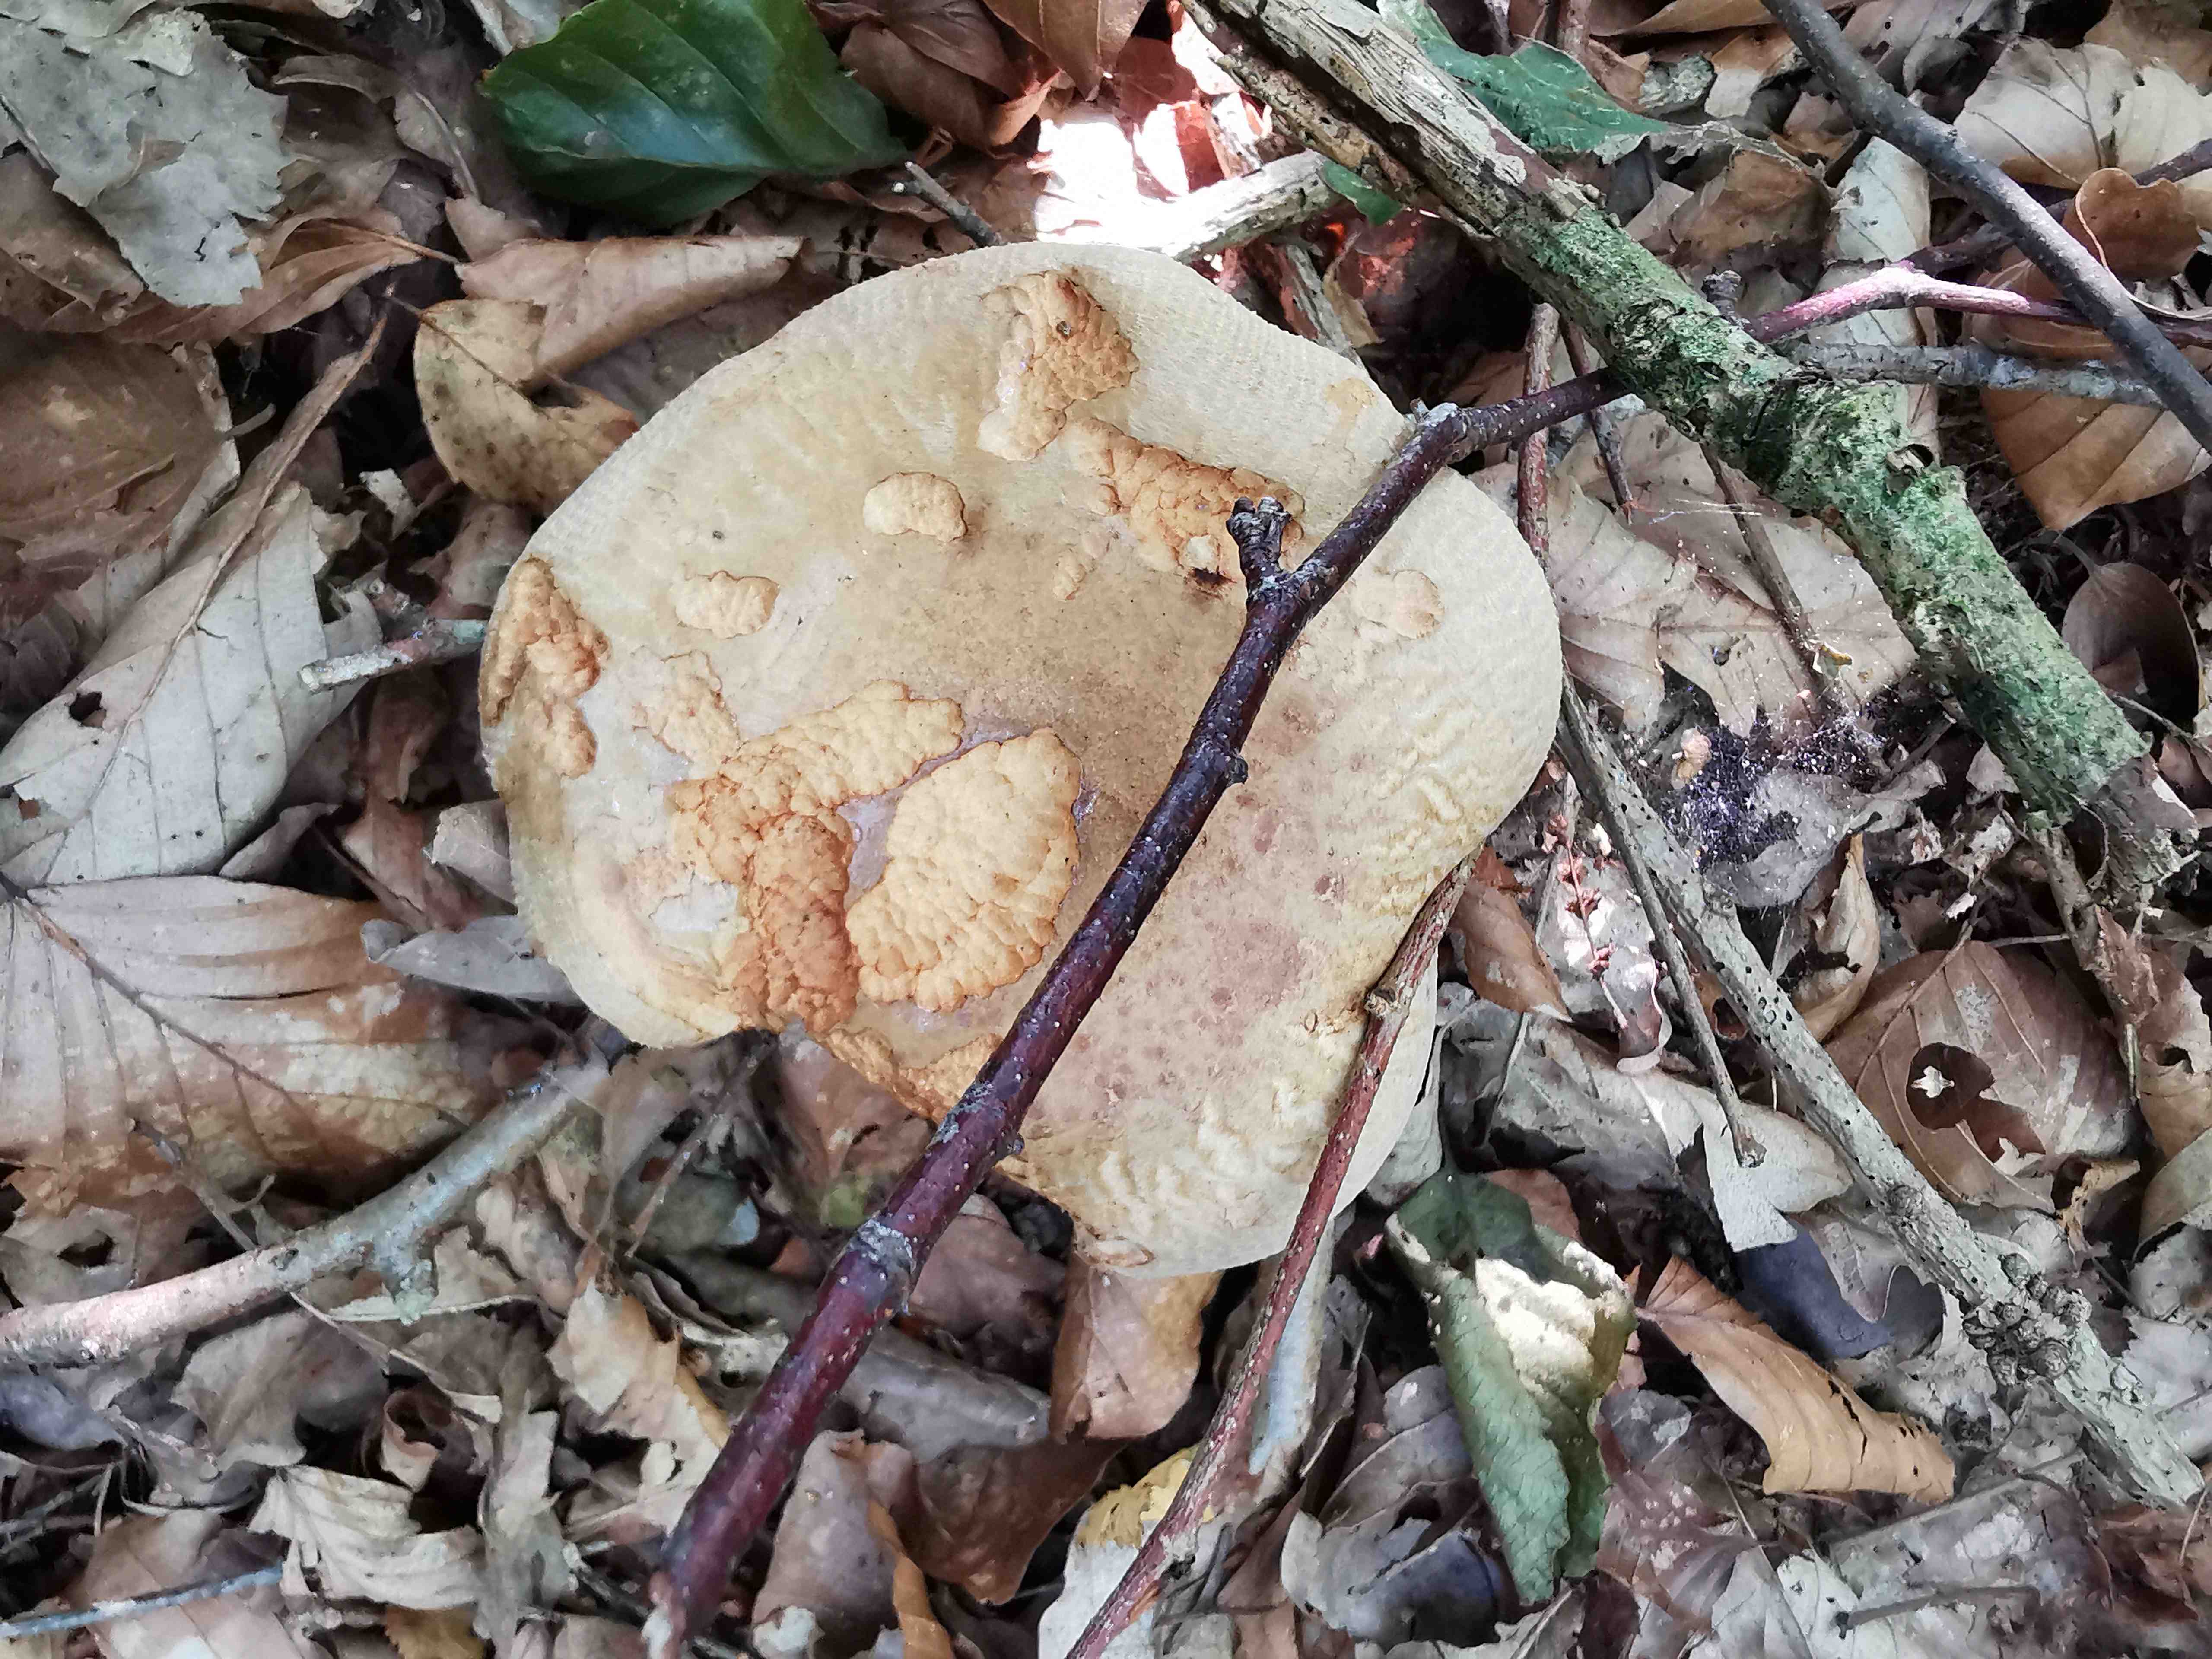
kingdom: Fungi
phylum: Basidiomycota
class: Agaricomycetes
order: Boletales
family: Paxillaceae
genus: Paxillus
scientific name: Paxillus involutus
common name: almindelig netbladhat
